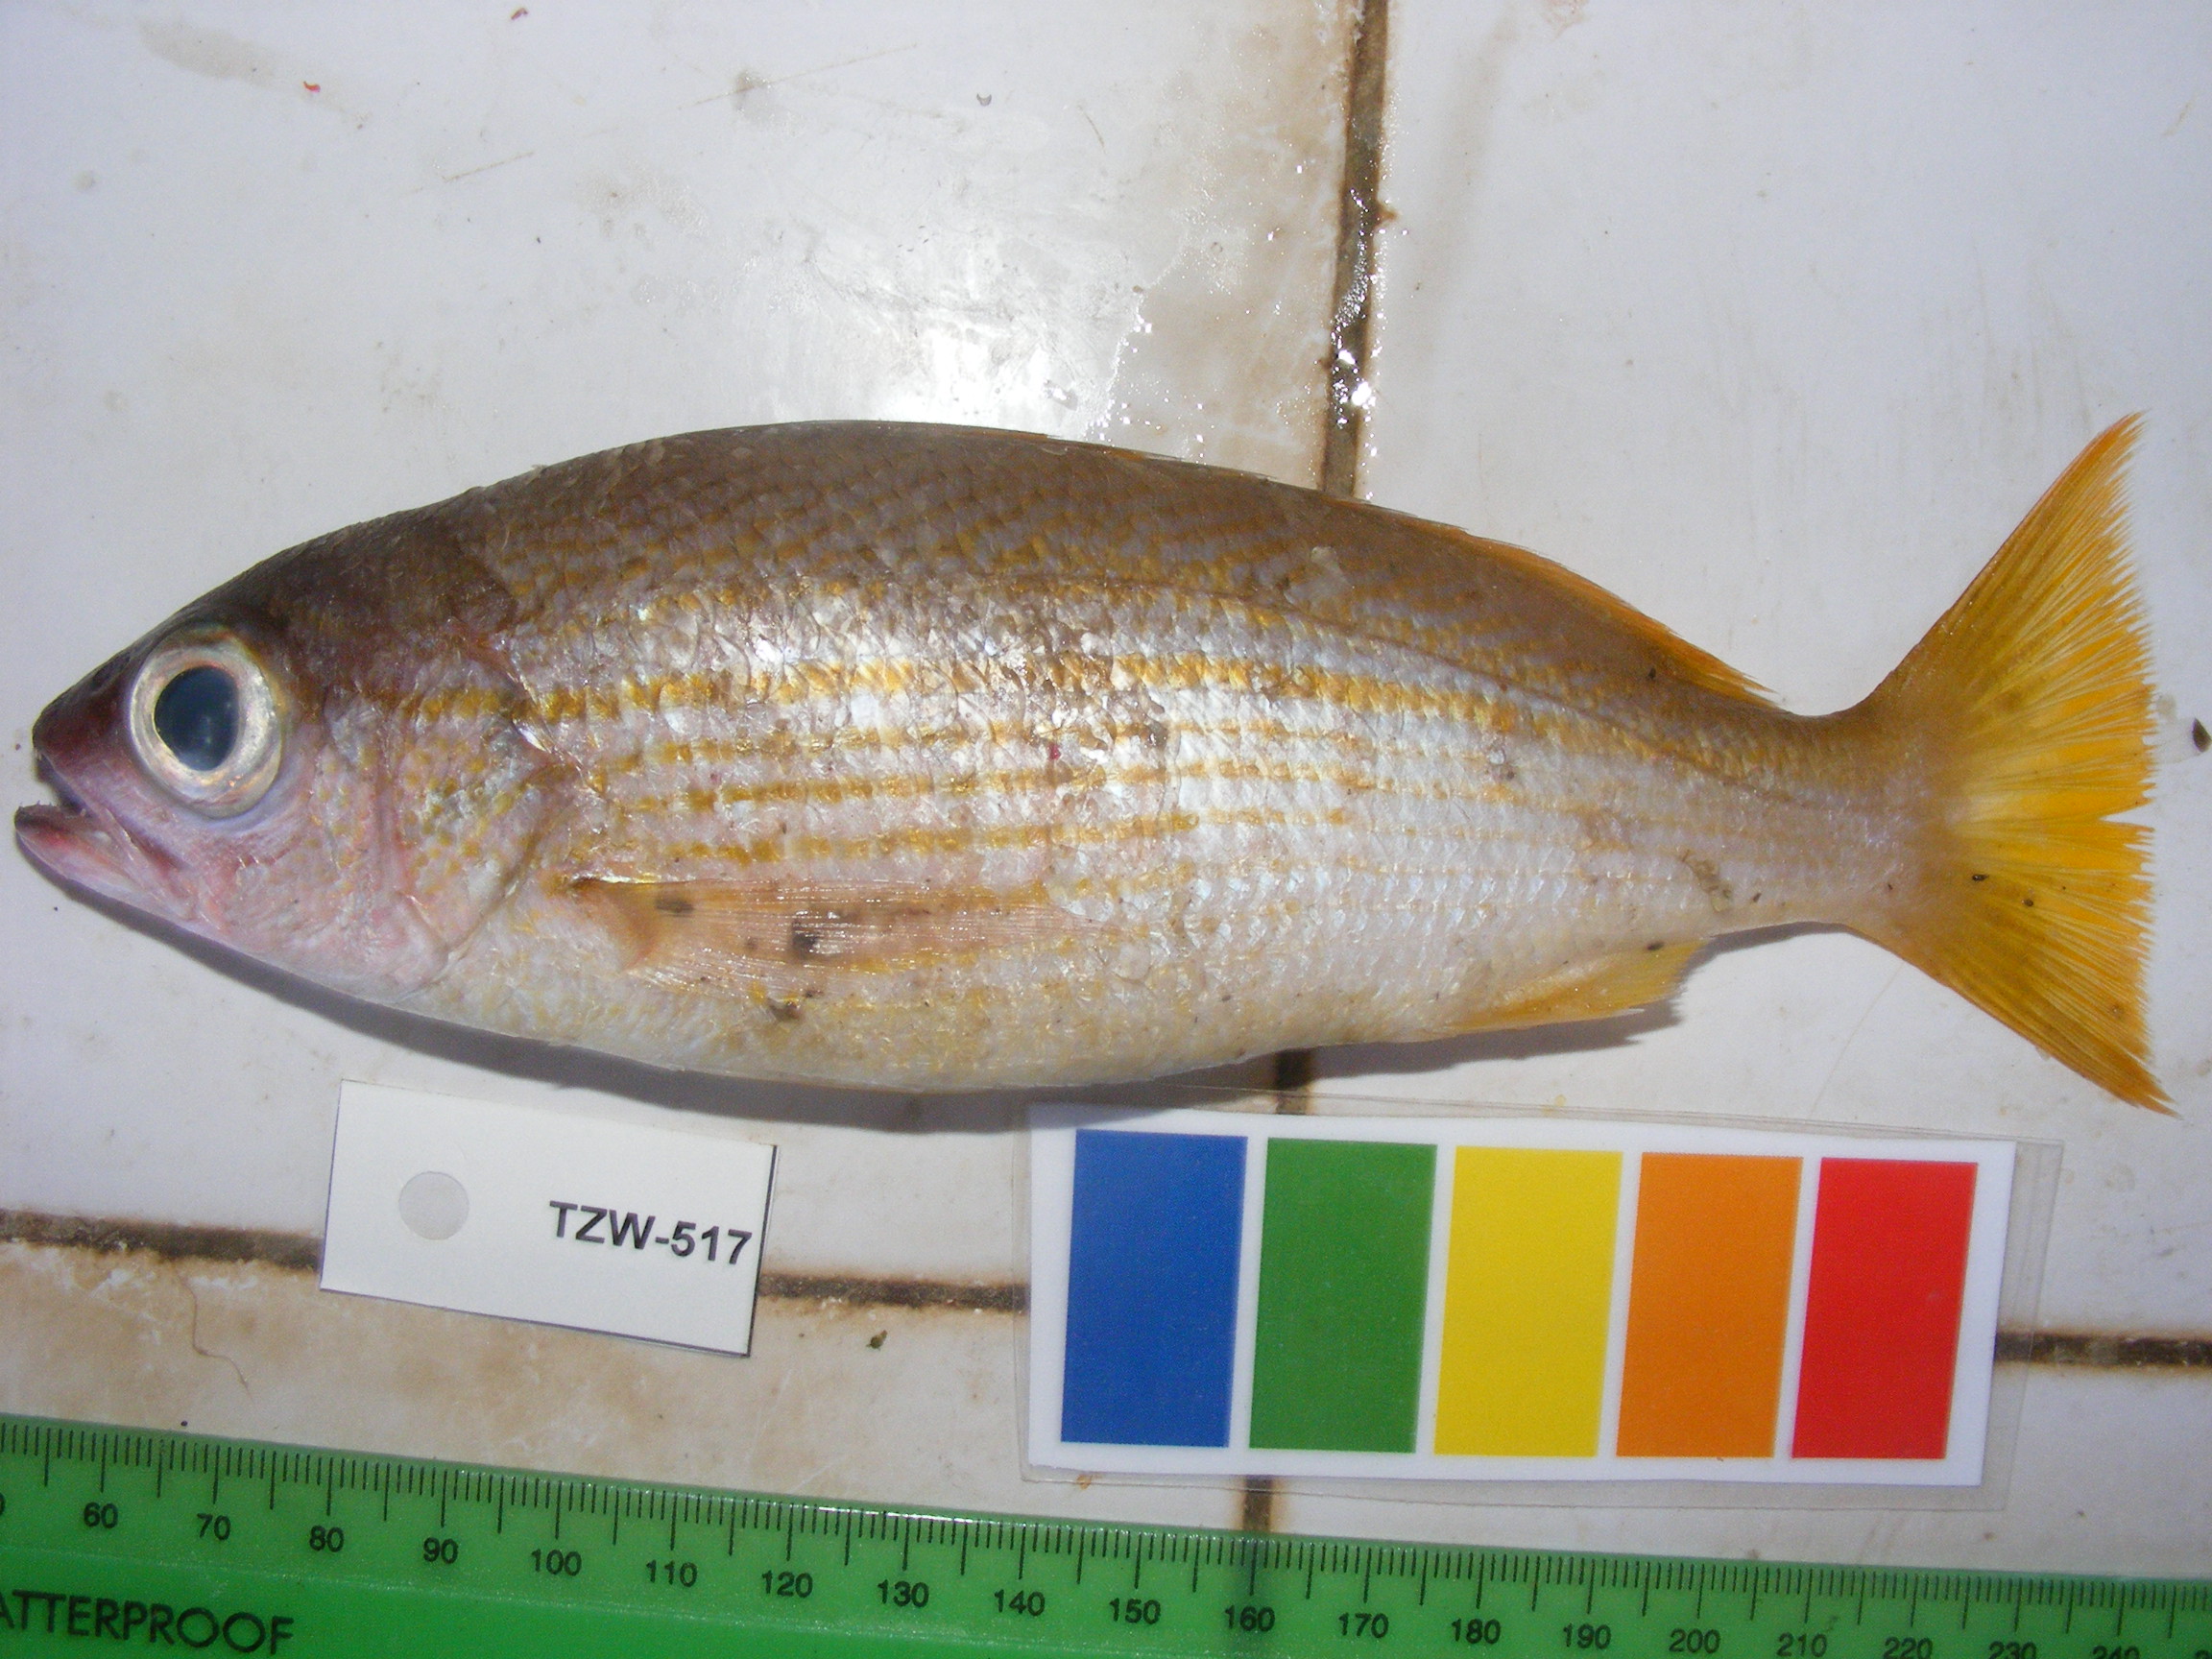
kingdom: Animalia
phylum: Chordata
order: Perciformes
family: Lutjanidae
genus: Lutjanus
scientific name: Lutjanus lutjanus
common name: Bigeye snapper
